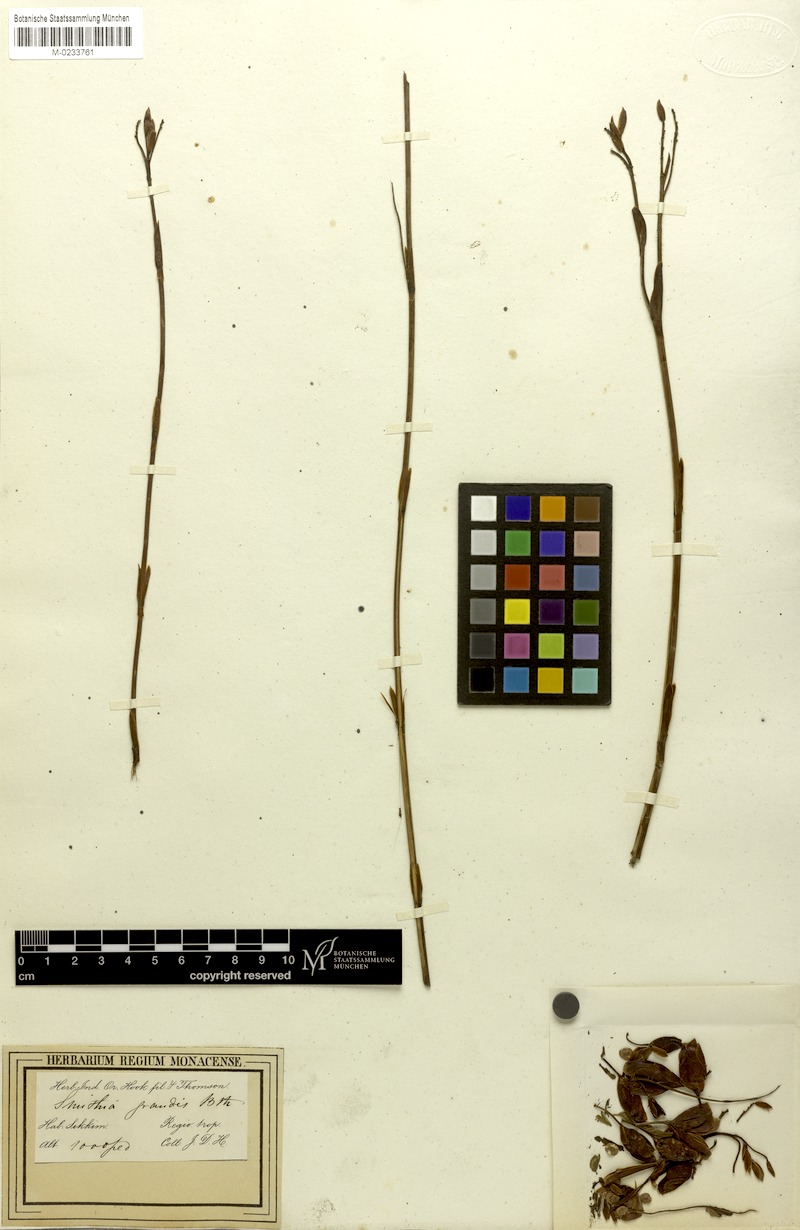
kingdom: Plantae
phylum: Tracheophyta
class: Magnoliopsida
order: Fabales
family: Fabaceae
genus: Smithia
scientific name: Smithia grandis
